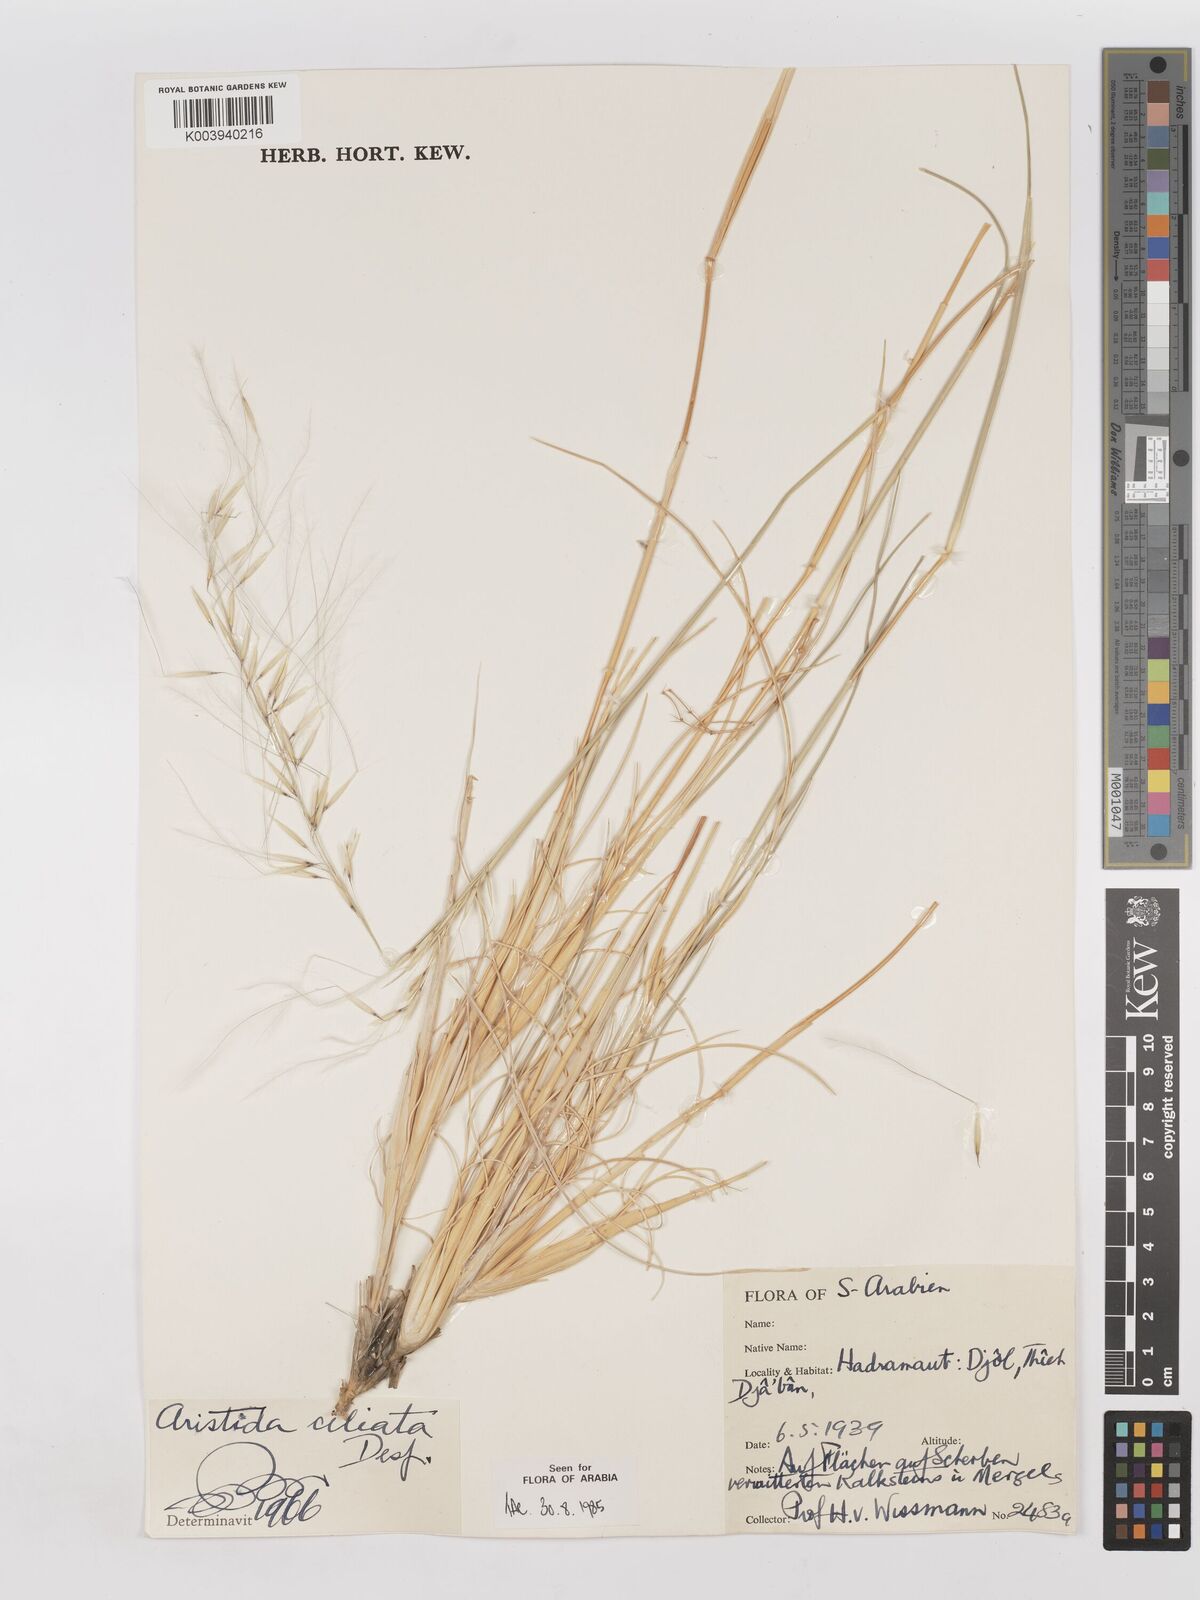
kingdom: Plantae
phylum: Tracheophyta
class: Liliopsida
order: Poales
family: Poaceae
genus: Stipagrostis
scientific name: Stipagrostis ciliata
